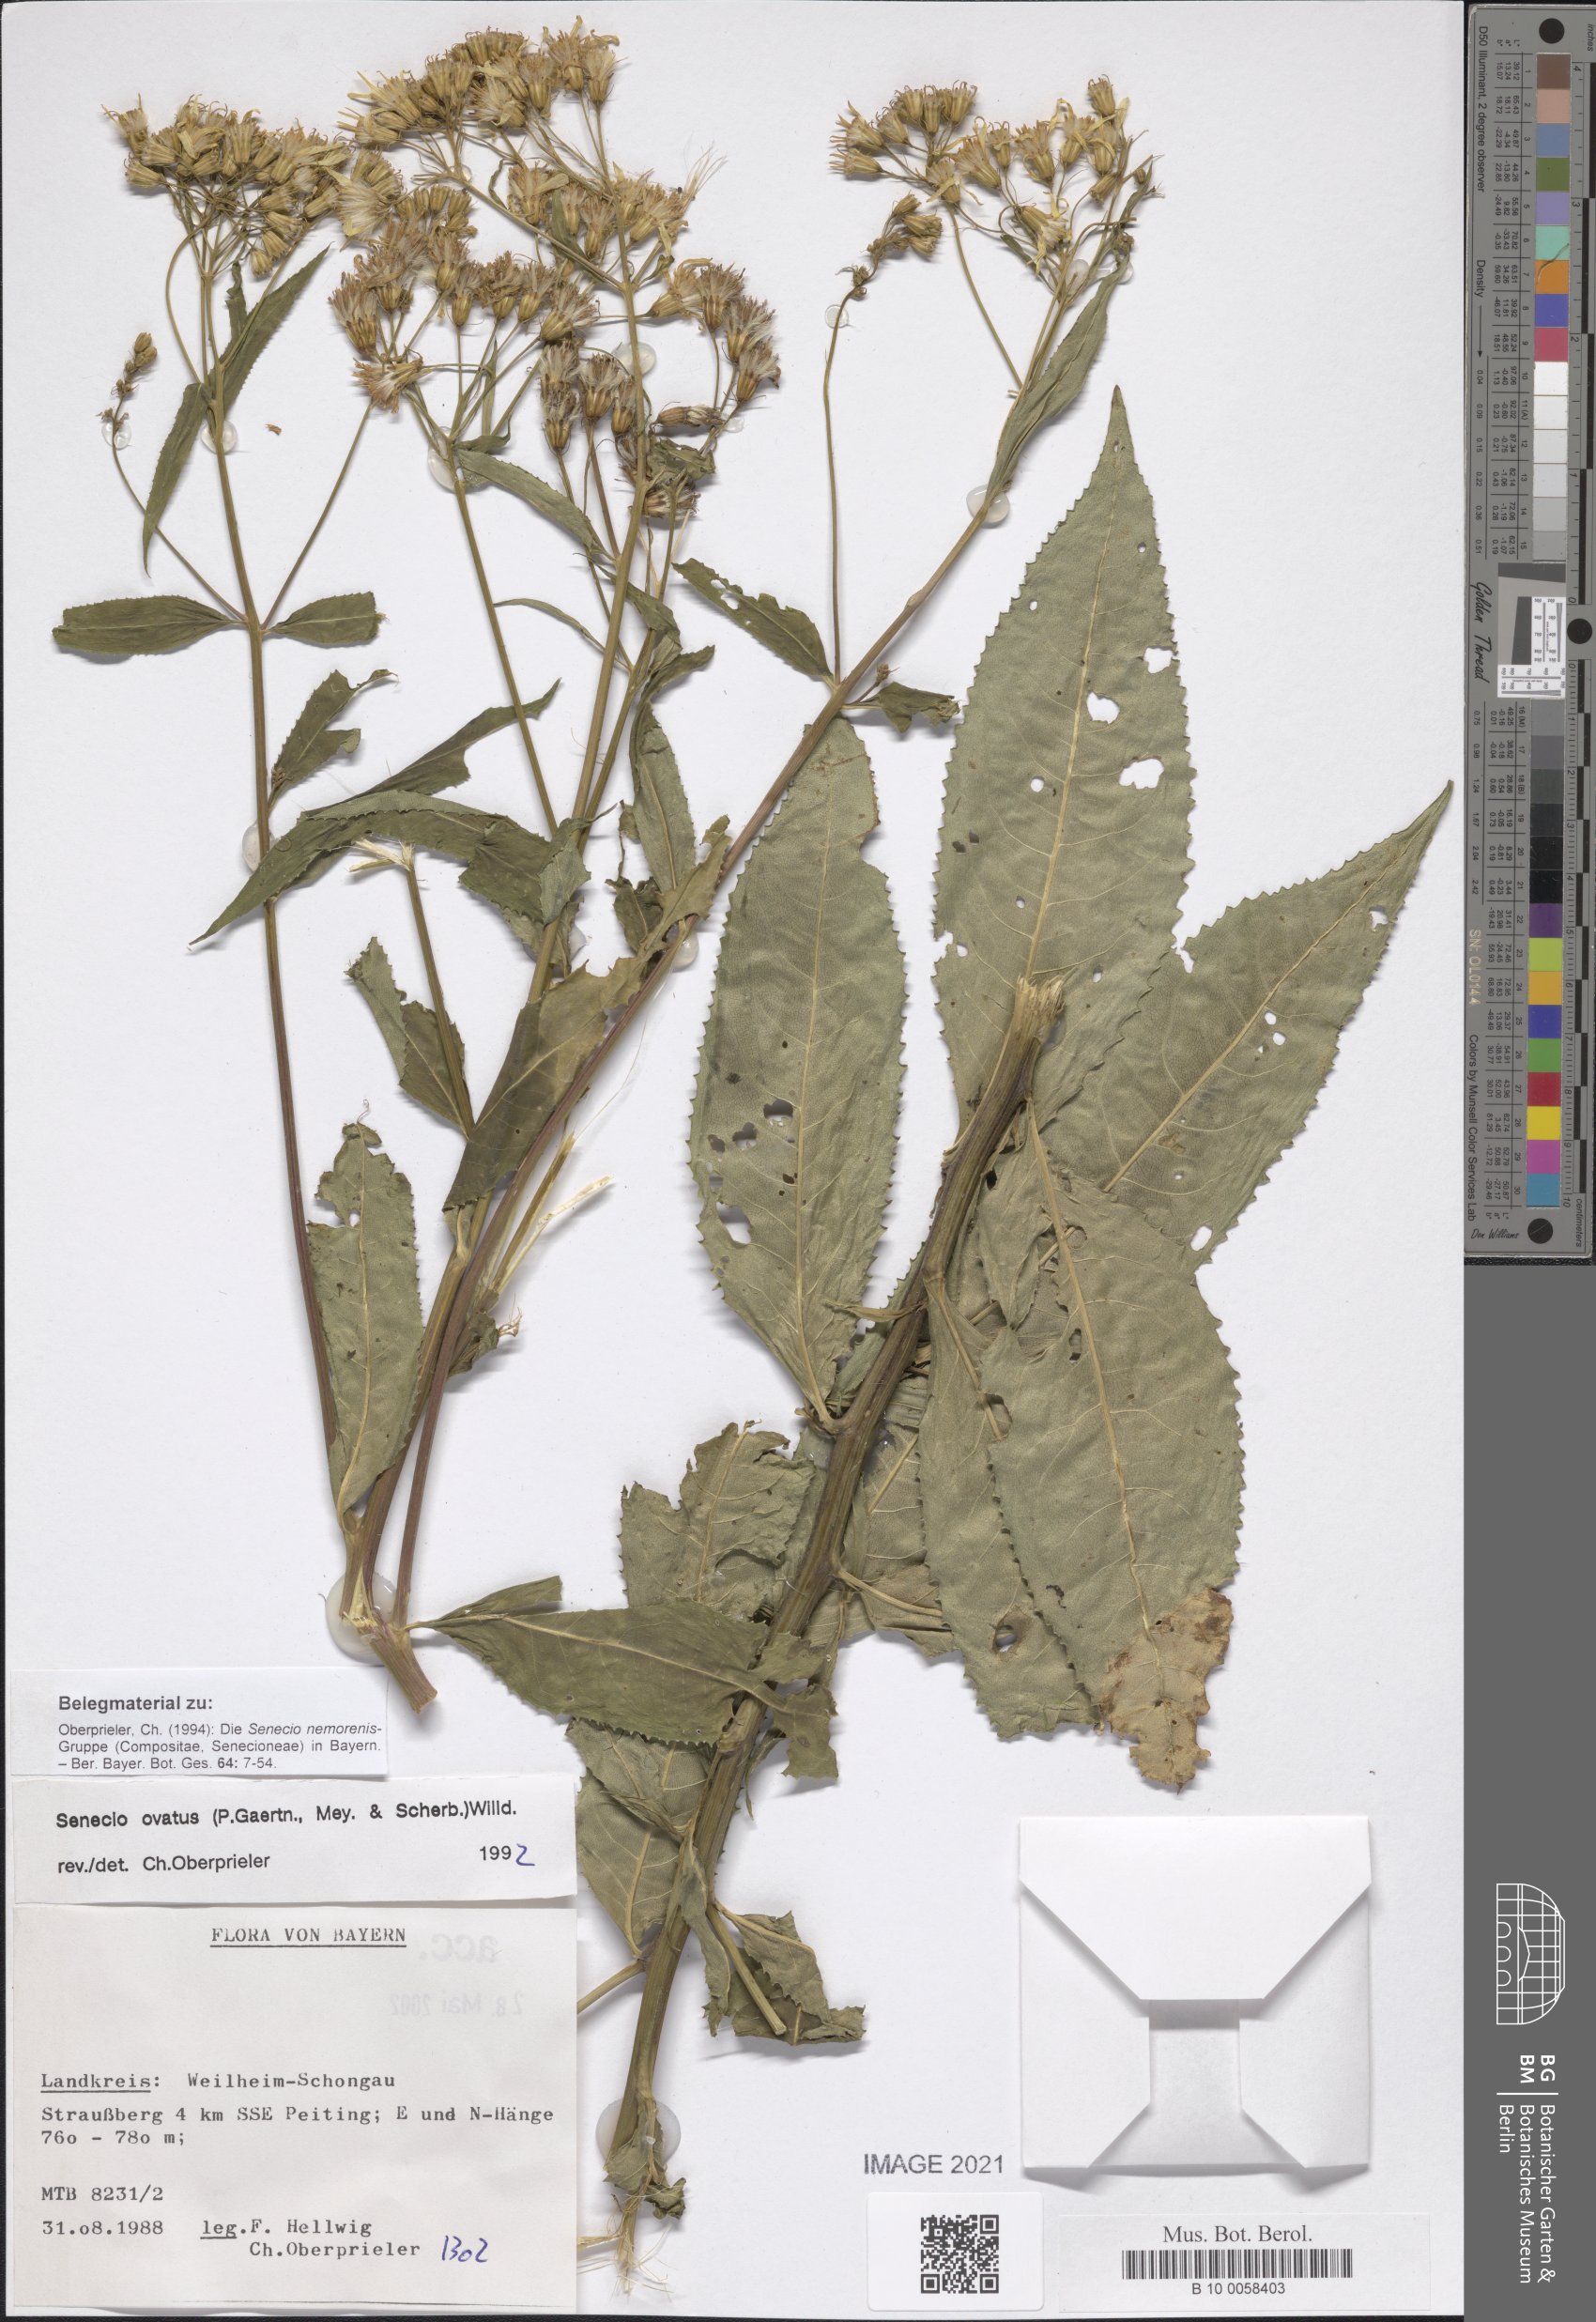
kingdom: Plantae
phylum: Tracheophyta
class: Magnoliopsida
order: Asterales
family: Asteraceae
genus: Senecio
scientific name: Senecio ovatus
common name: Wood ragwort
